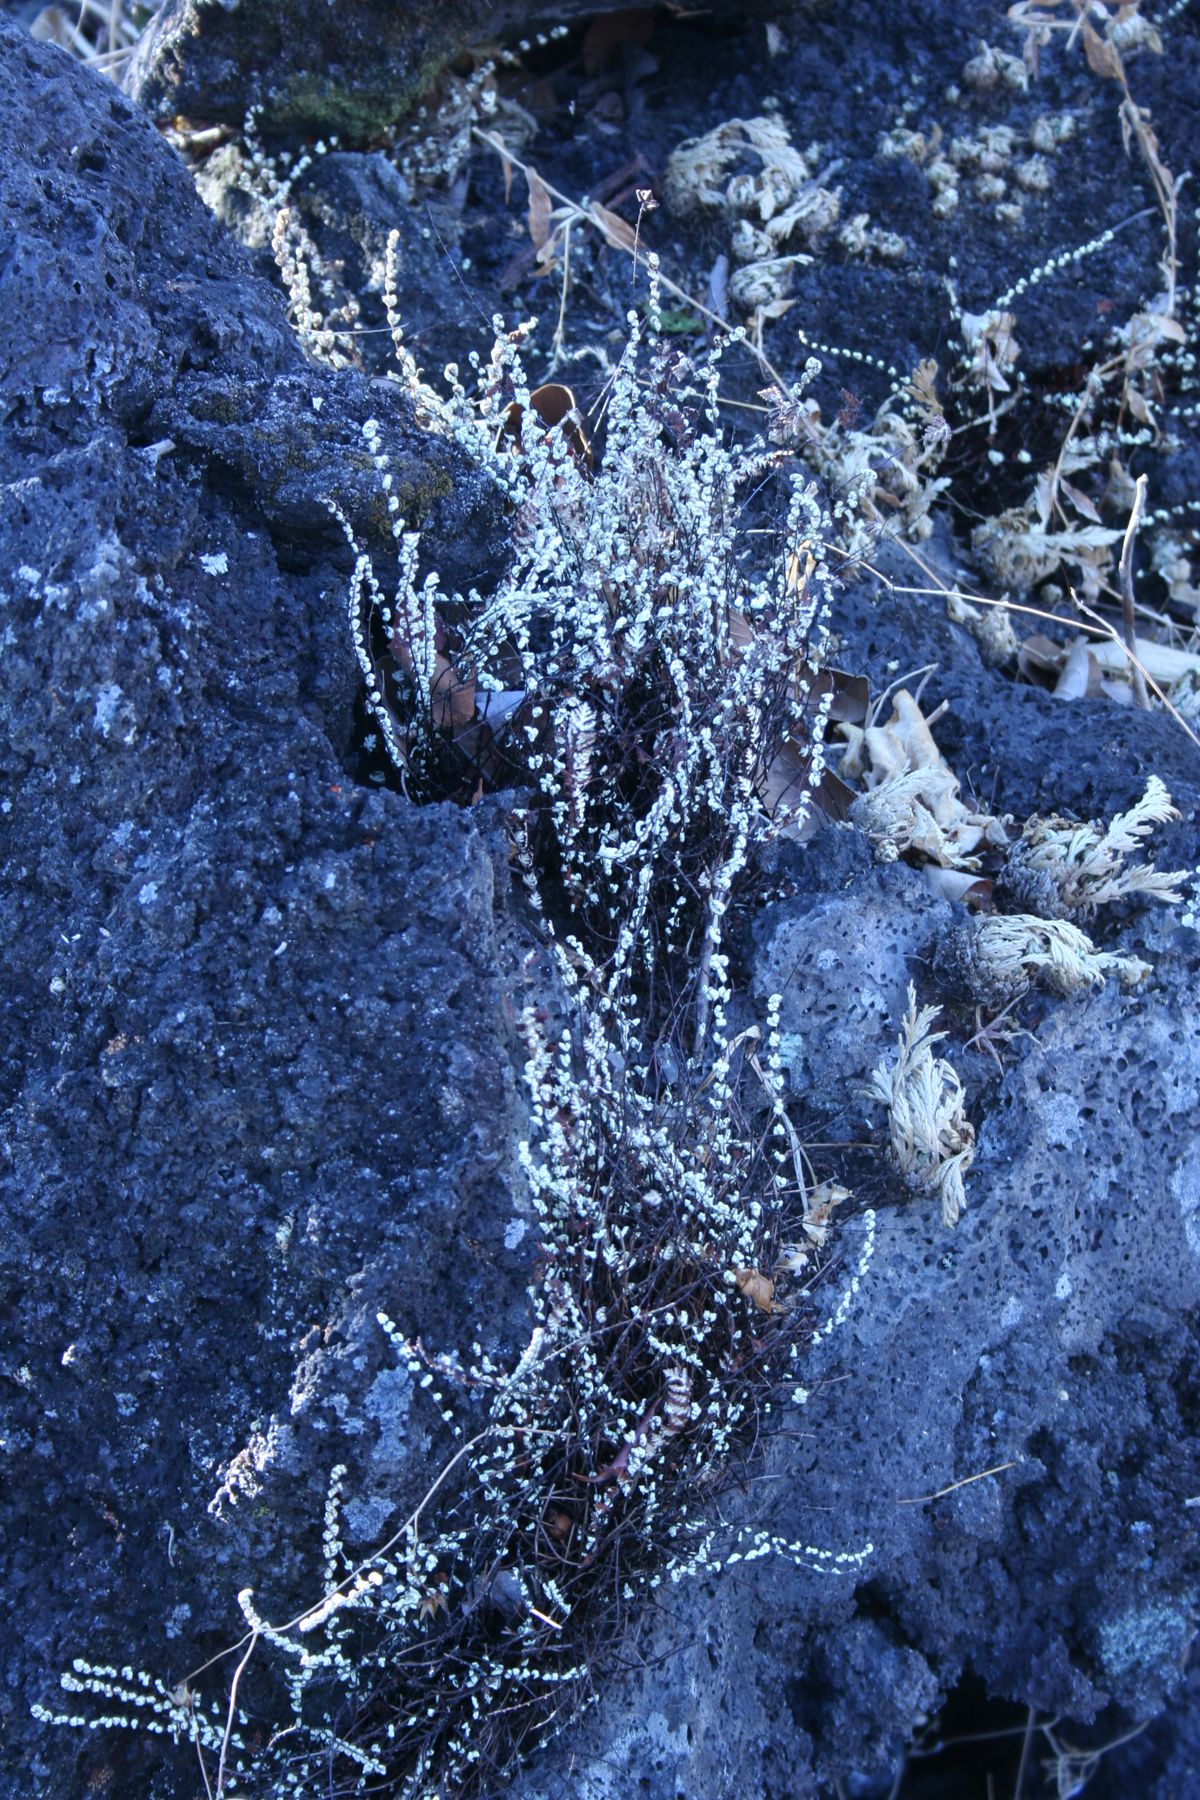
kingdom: Plantae
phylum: Tracheophyta
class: Polypodiopsida
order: Polypodiales
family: Pteridaceae
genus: Notholaena
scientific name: Notholaena meridionalis
